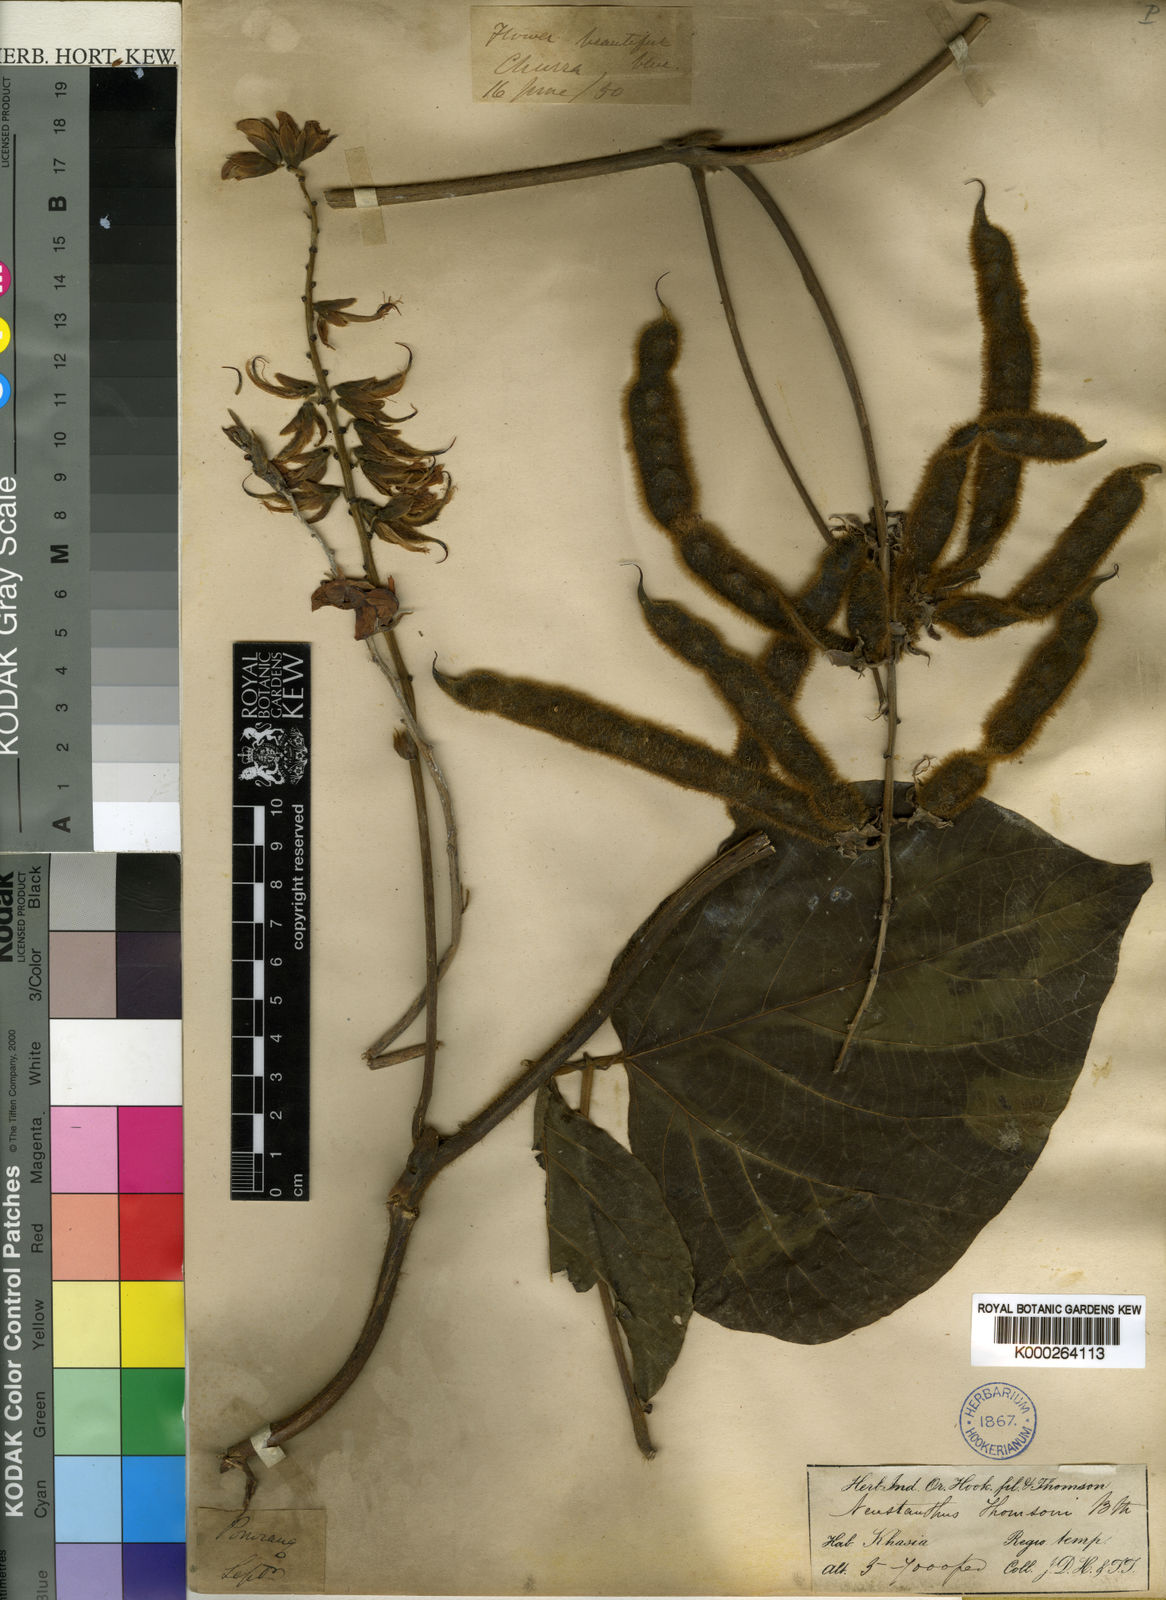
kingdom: Plantae
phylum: Tracheophyta
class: Magnoliopsida
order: Fabales
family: Fabaceae
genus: Neustanthus
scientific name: Neustanthus
